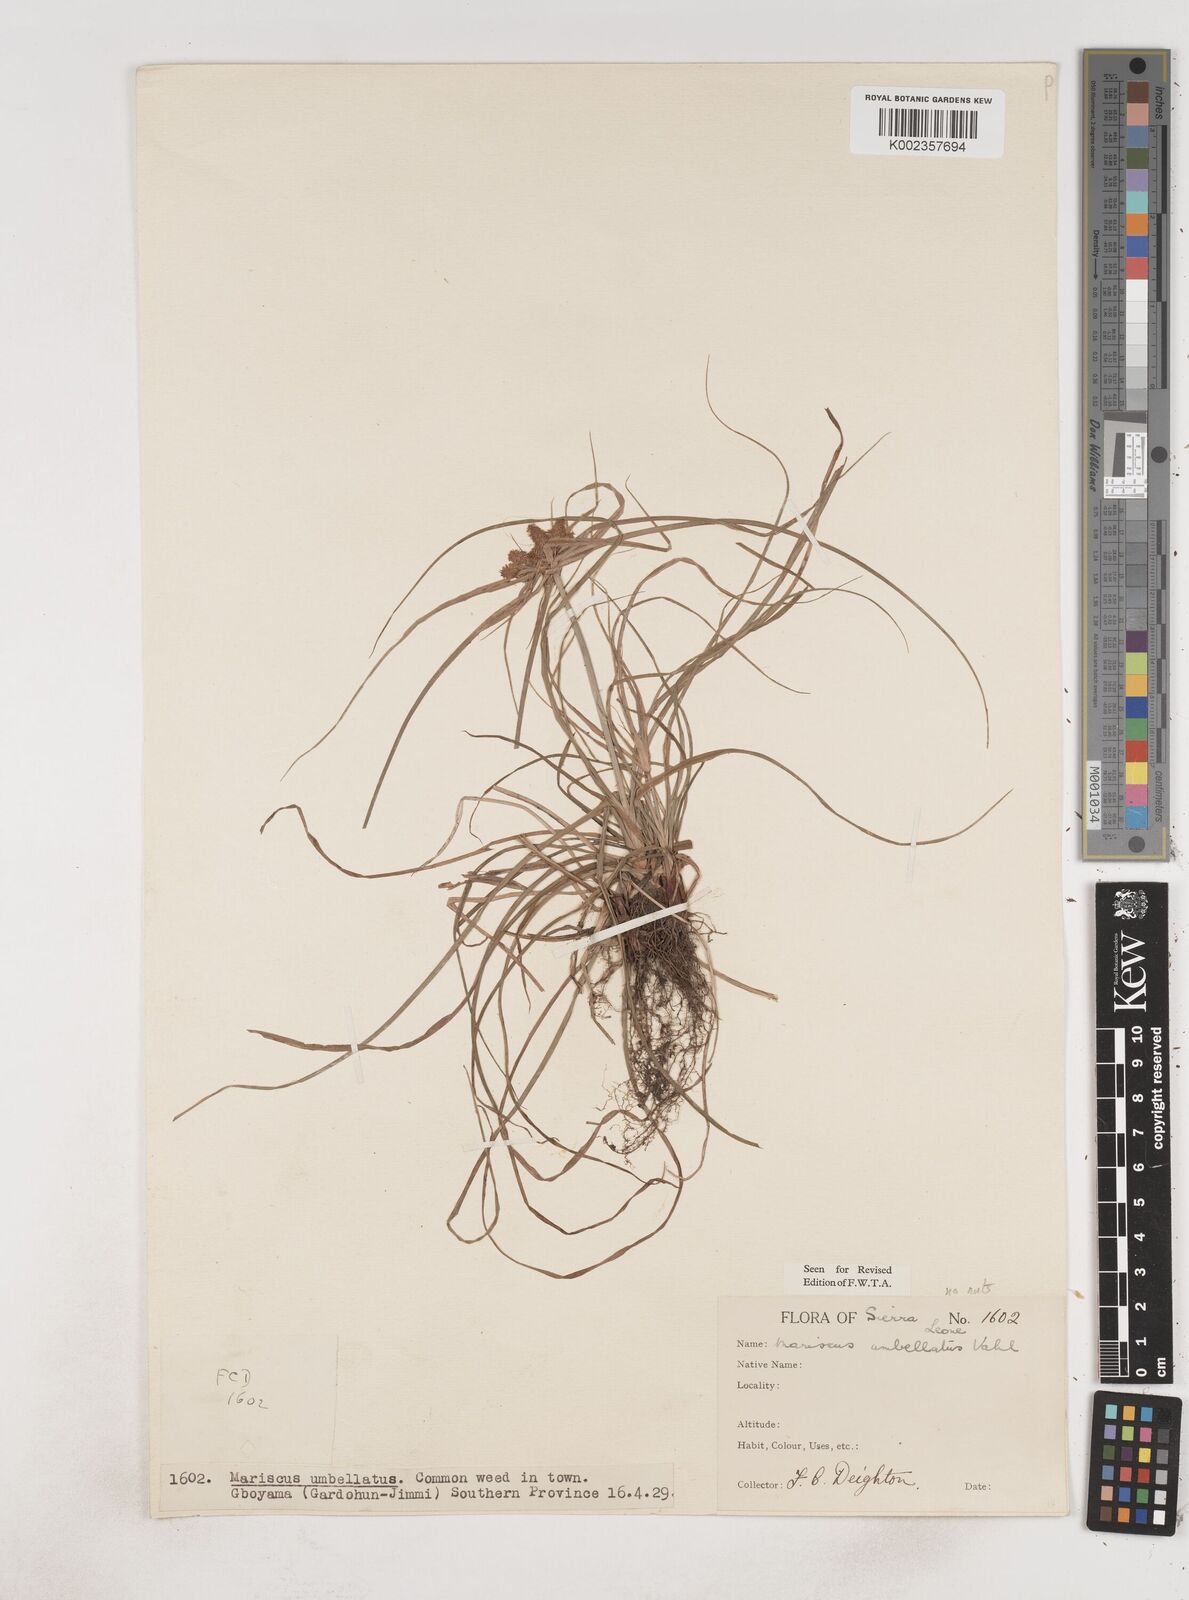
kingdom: Plantae
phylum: Tracheophyta
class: Liliopsida
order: Poales
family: Cyperaceae
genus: Cyperus
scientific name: Cyperus sublimis
